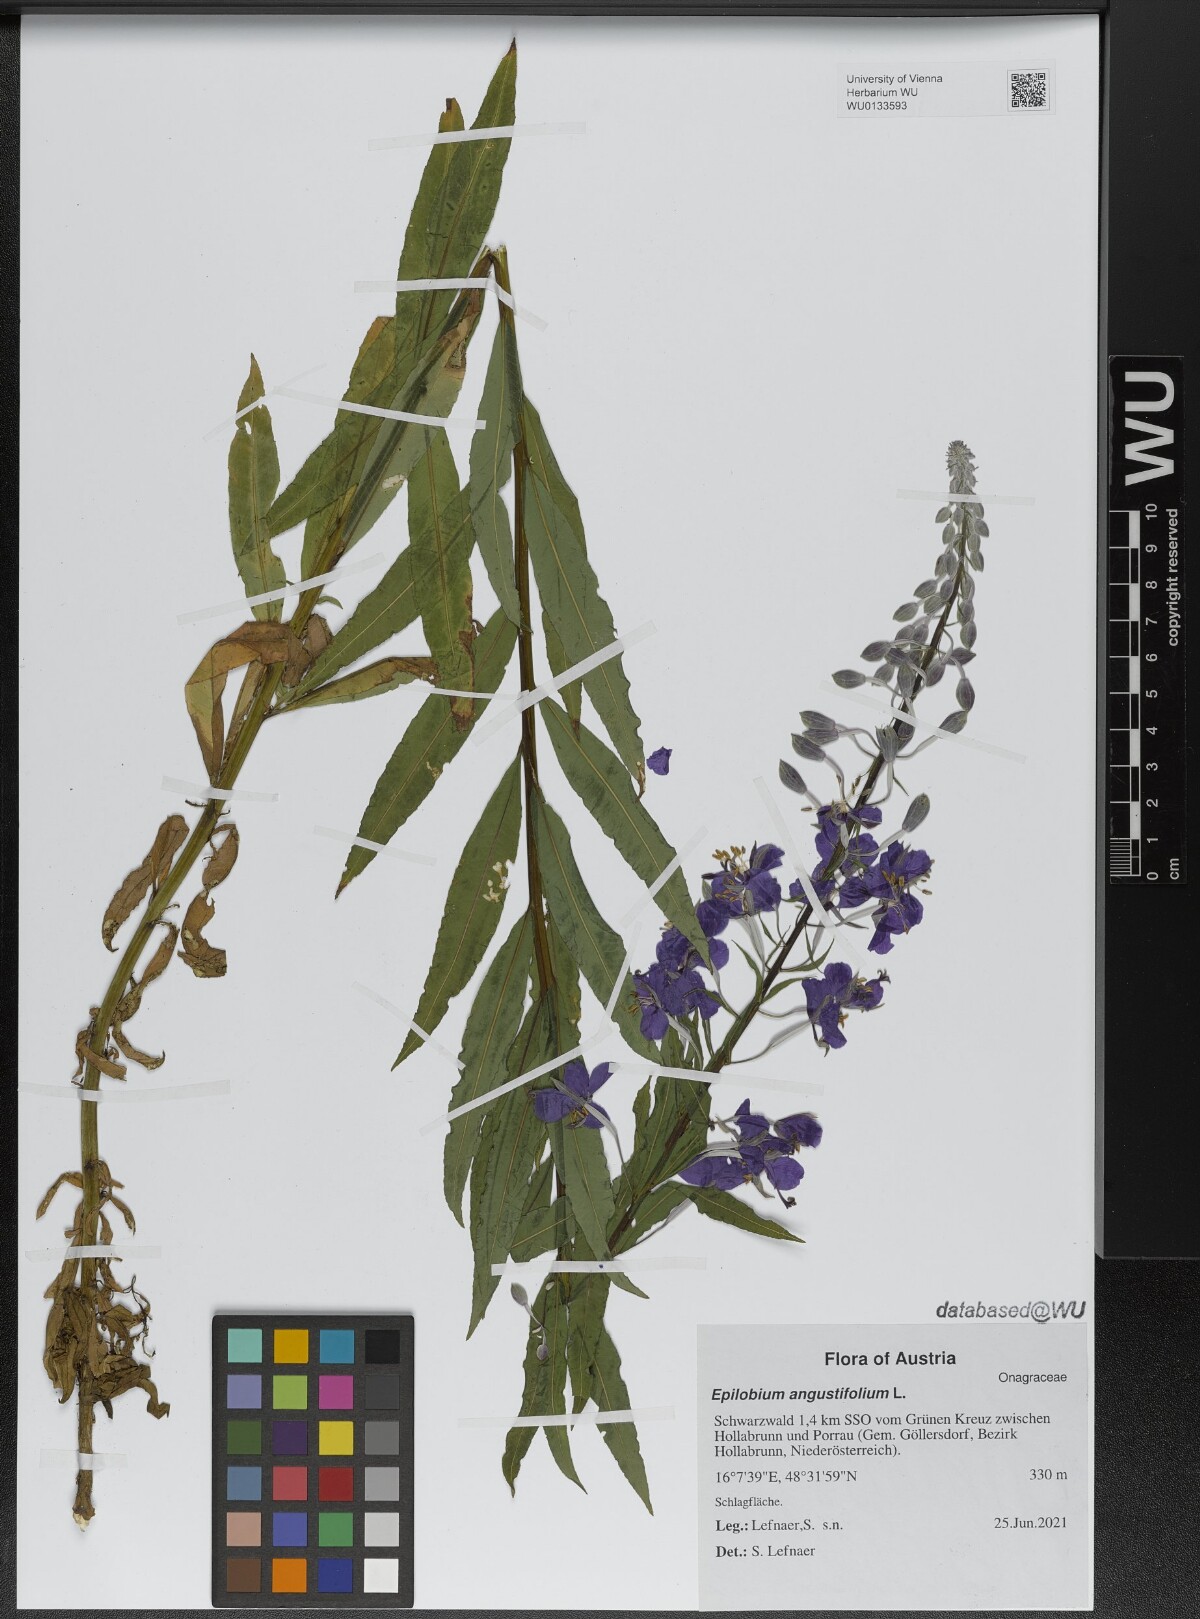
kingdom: Plantae
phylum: Tracheophyta
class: Magnoliopsida
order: Myrtales
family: Onagraceae
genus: Chamaenerion
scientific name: Chamaenerion angustifolium
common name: Fireweed
